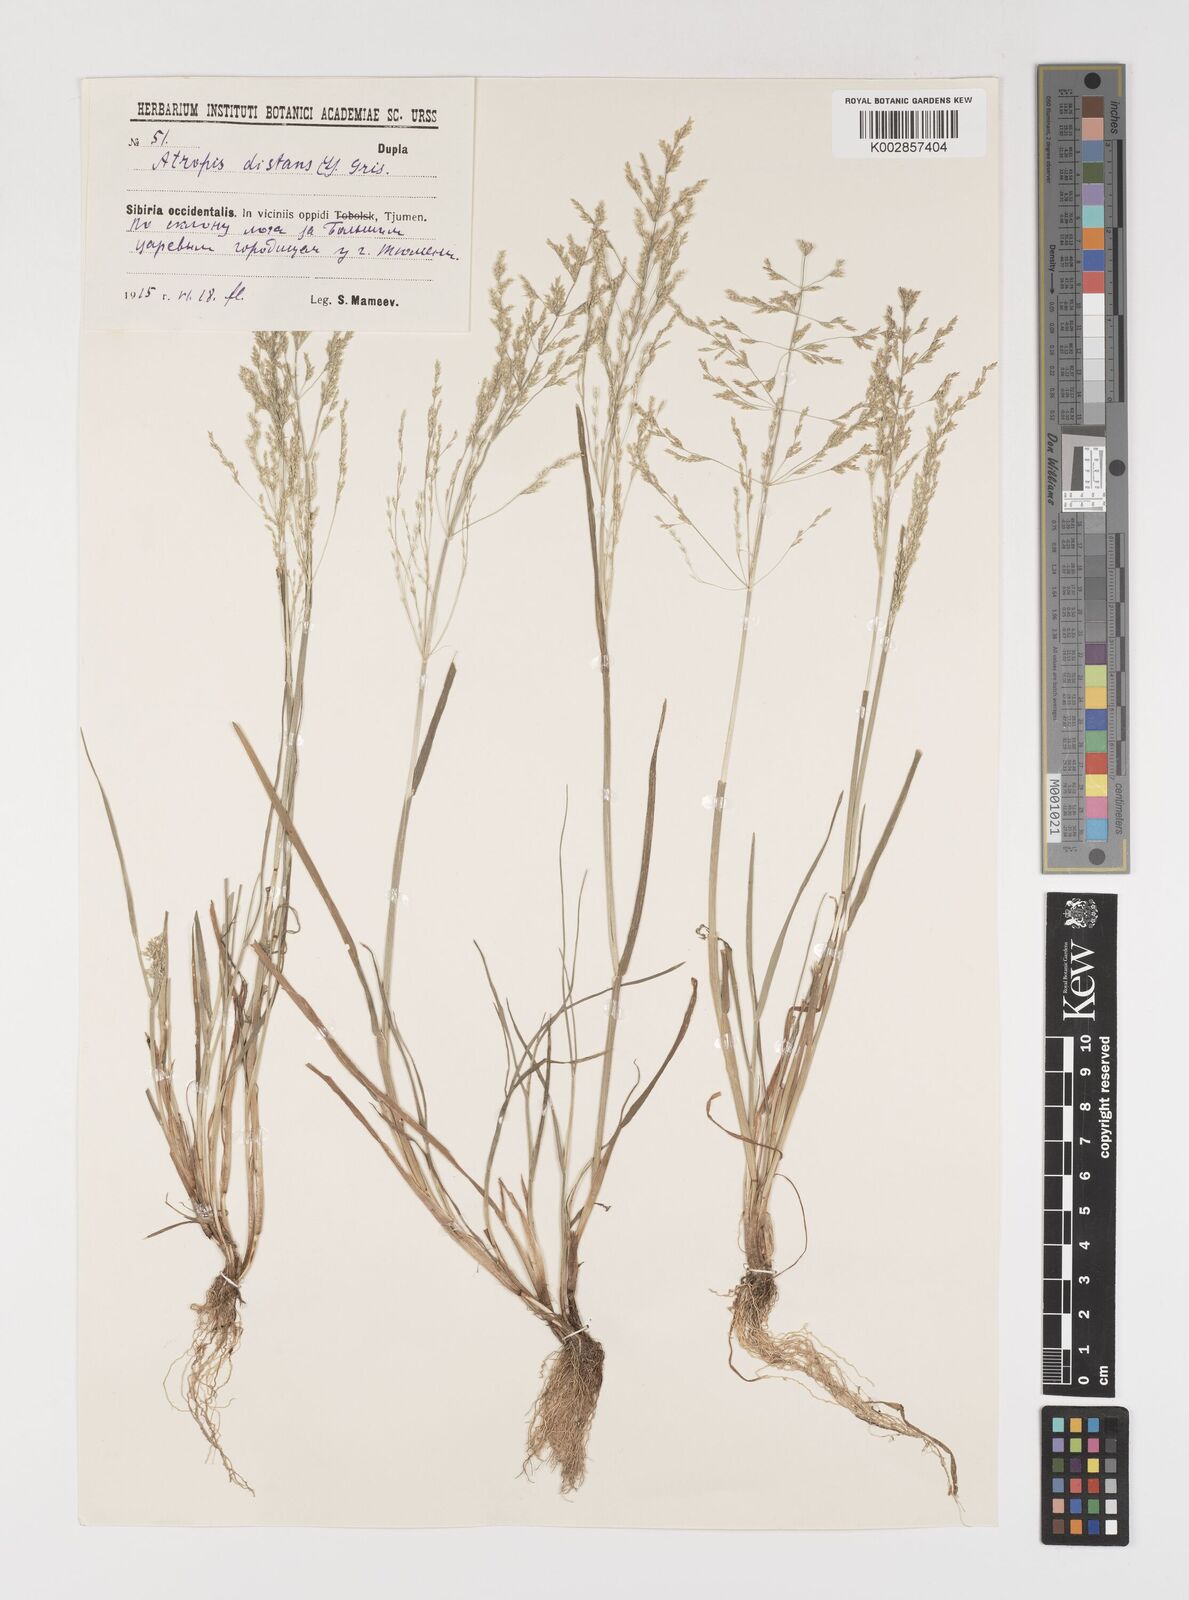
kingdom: Plantae
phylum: Tracheophyta
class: Liliopsida
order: Poales
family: Poaceae
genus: Puccinellia
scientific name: Puccinellia distans
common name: Weeping alkaligrass
